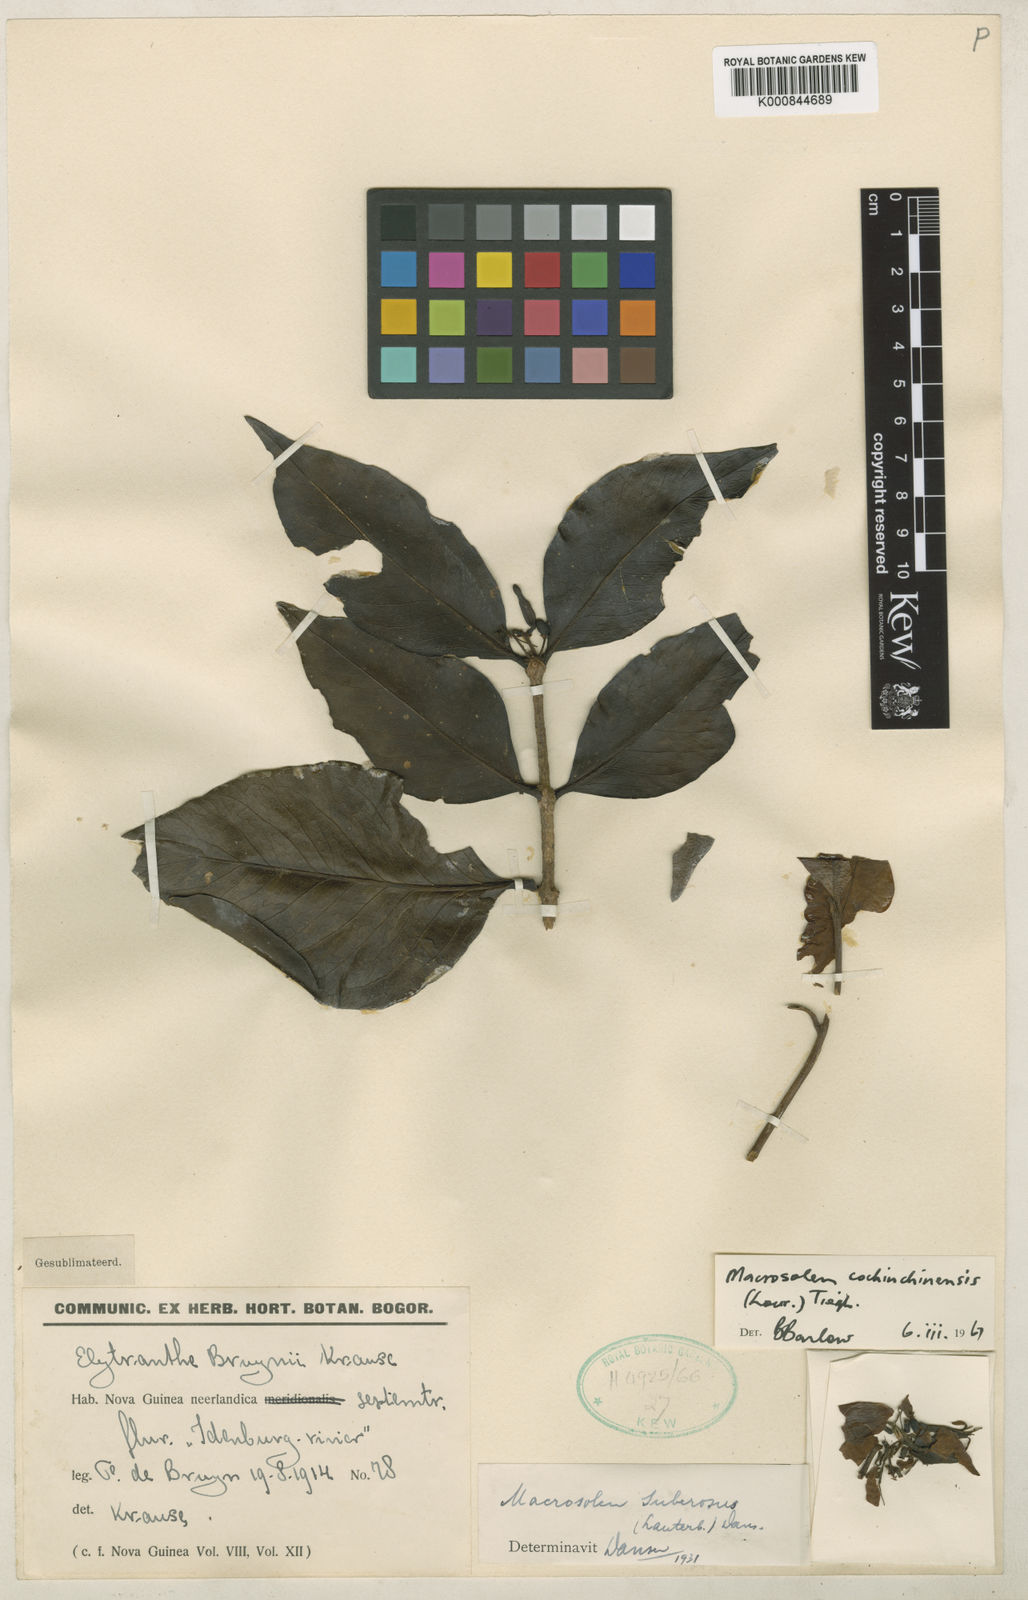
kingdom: Plantae
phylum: Tracheophyta
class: Magnoliopsida
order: Santalales
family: Loranthaceae
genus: Macrosolen
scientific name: Macrosolen cochinchinensis
